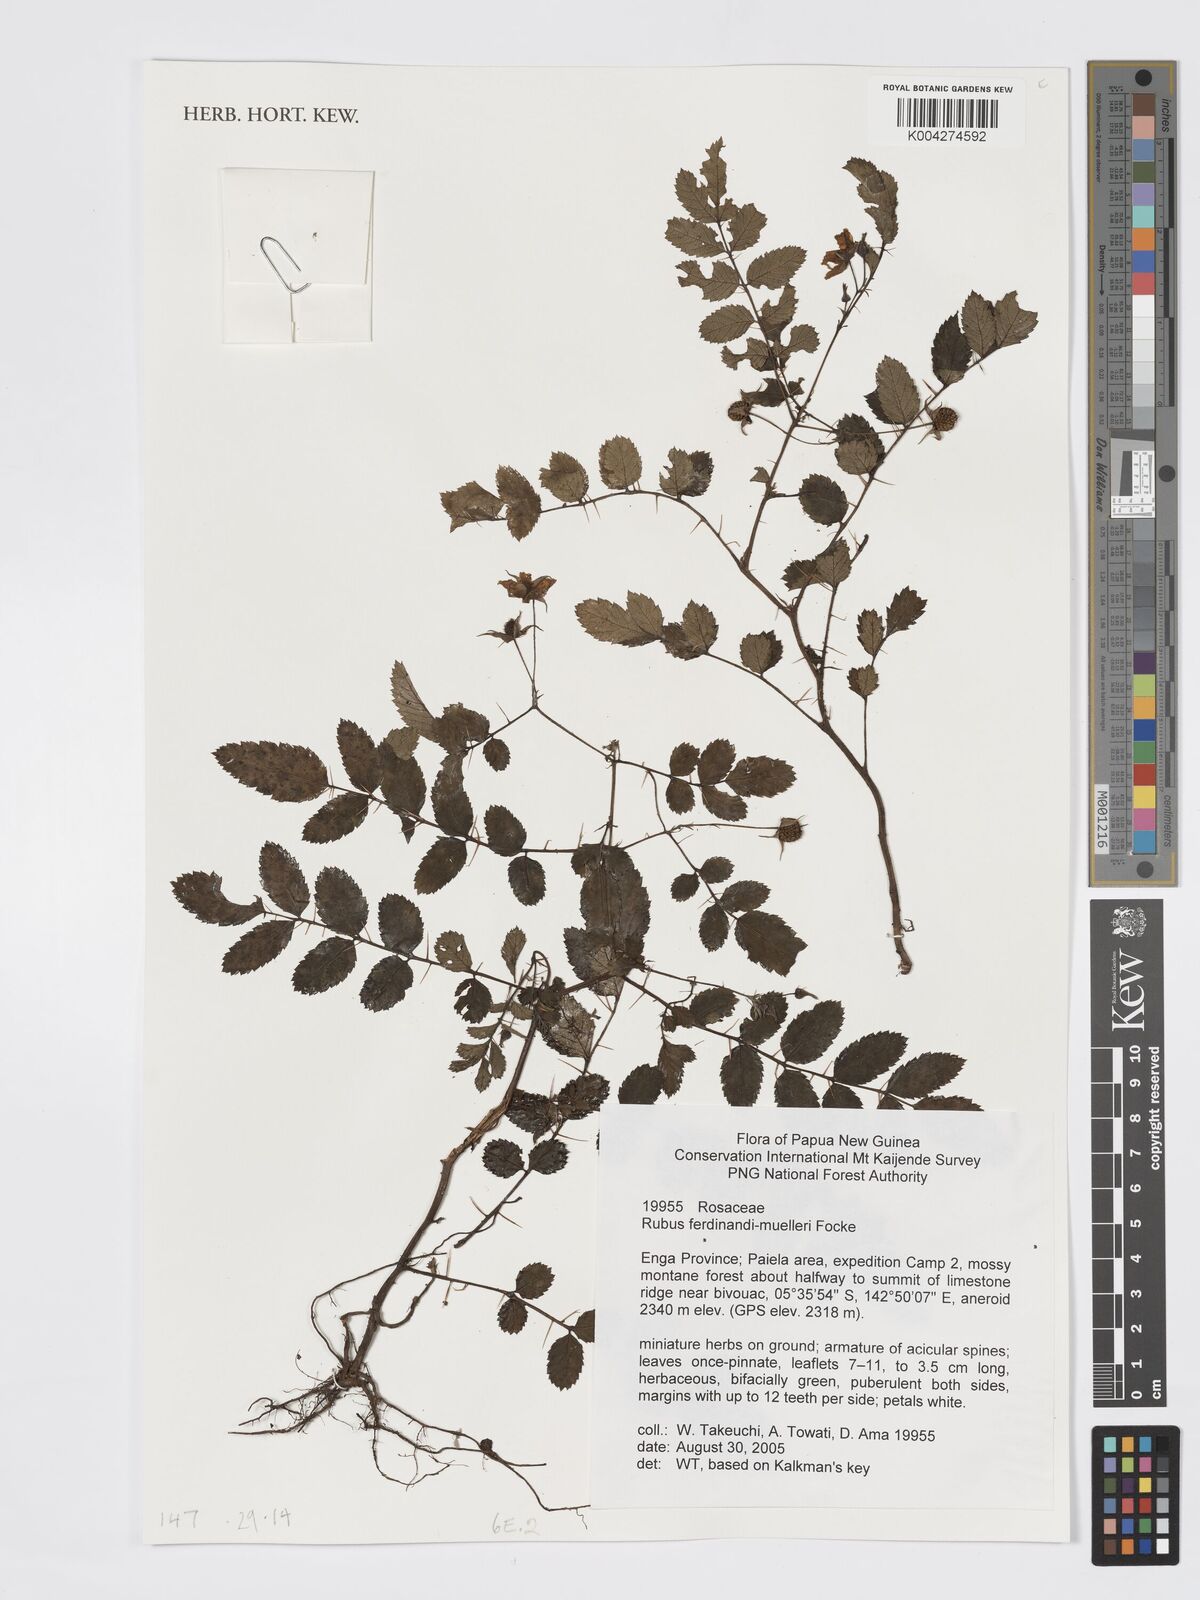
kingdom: Plantae
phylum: Tracheophyta
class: Magnoliopsida
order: Rosales
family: Rosaceae
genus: Rubus
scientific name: Rubus ferdinandimuelleri
